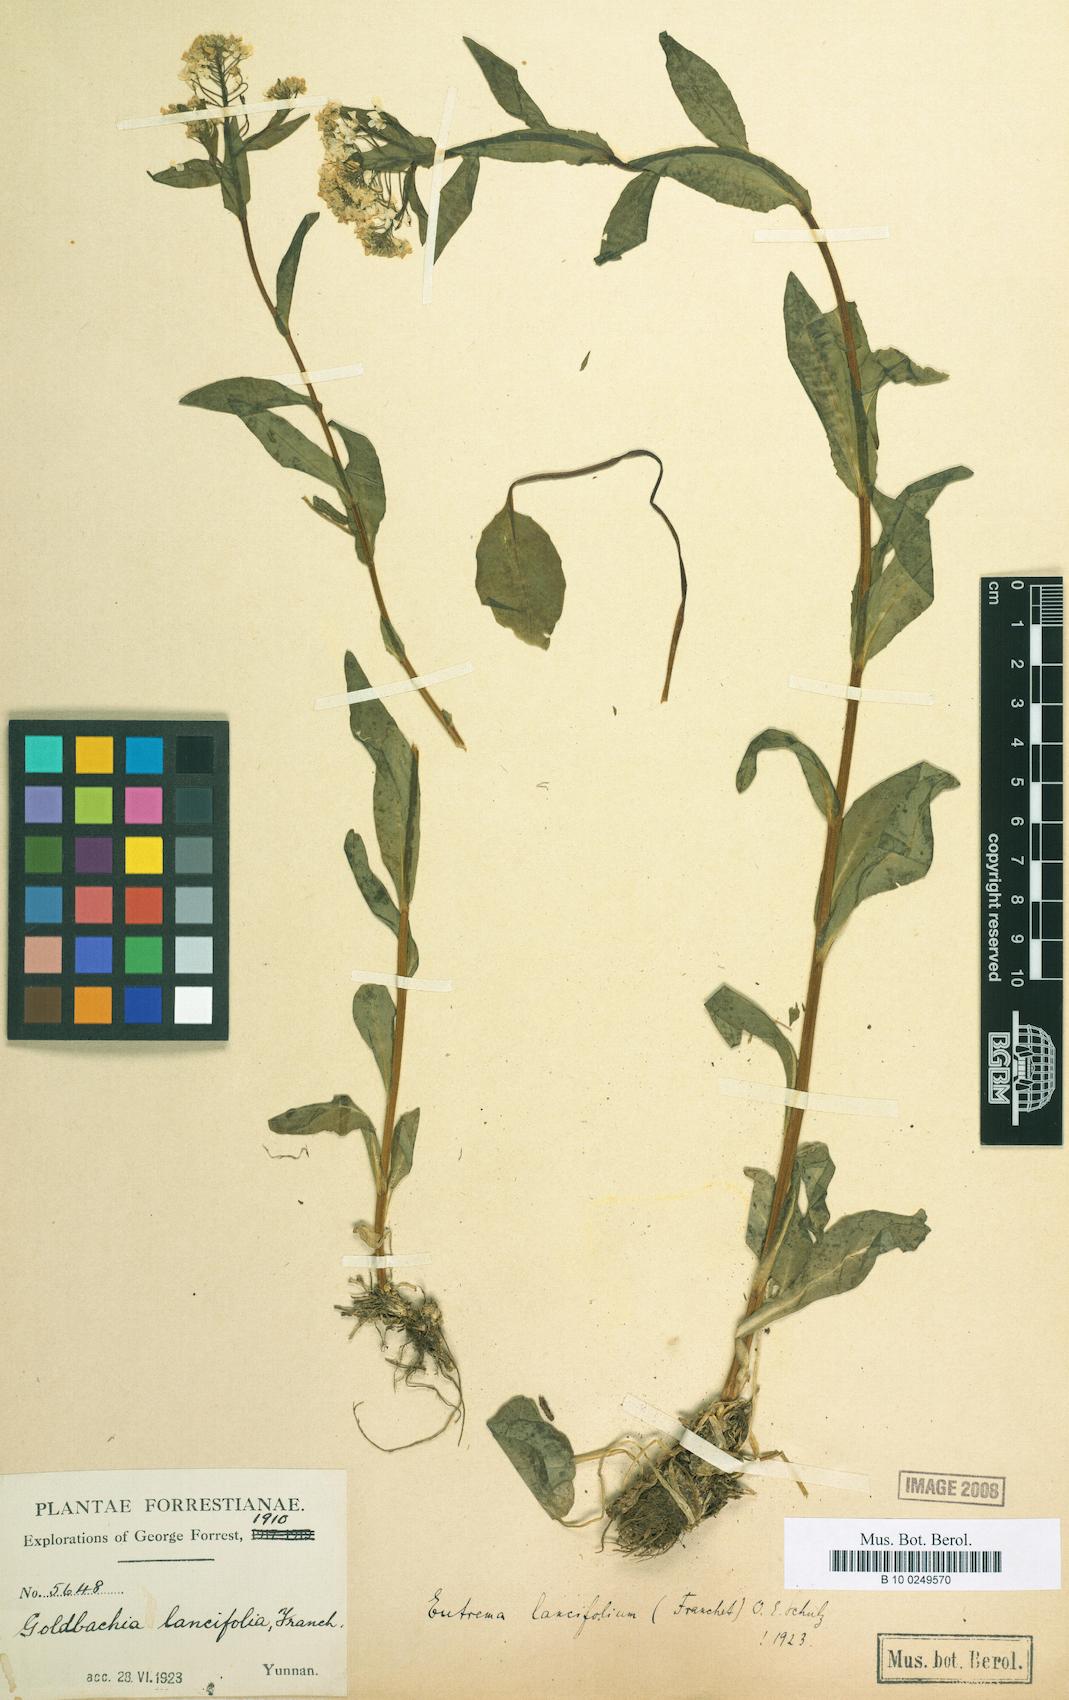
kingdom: Plantae
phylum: Tracheophyta
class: Magnoliopsida
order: Brassicales
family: Brassicaceae
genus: Eutrema
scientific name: Eutrema himalaicum
